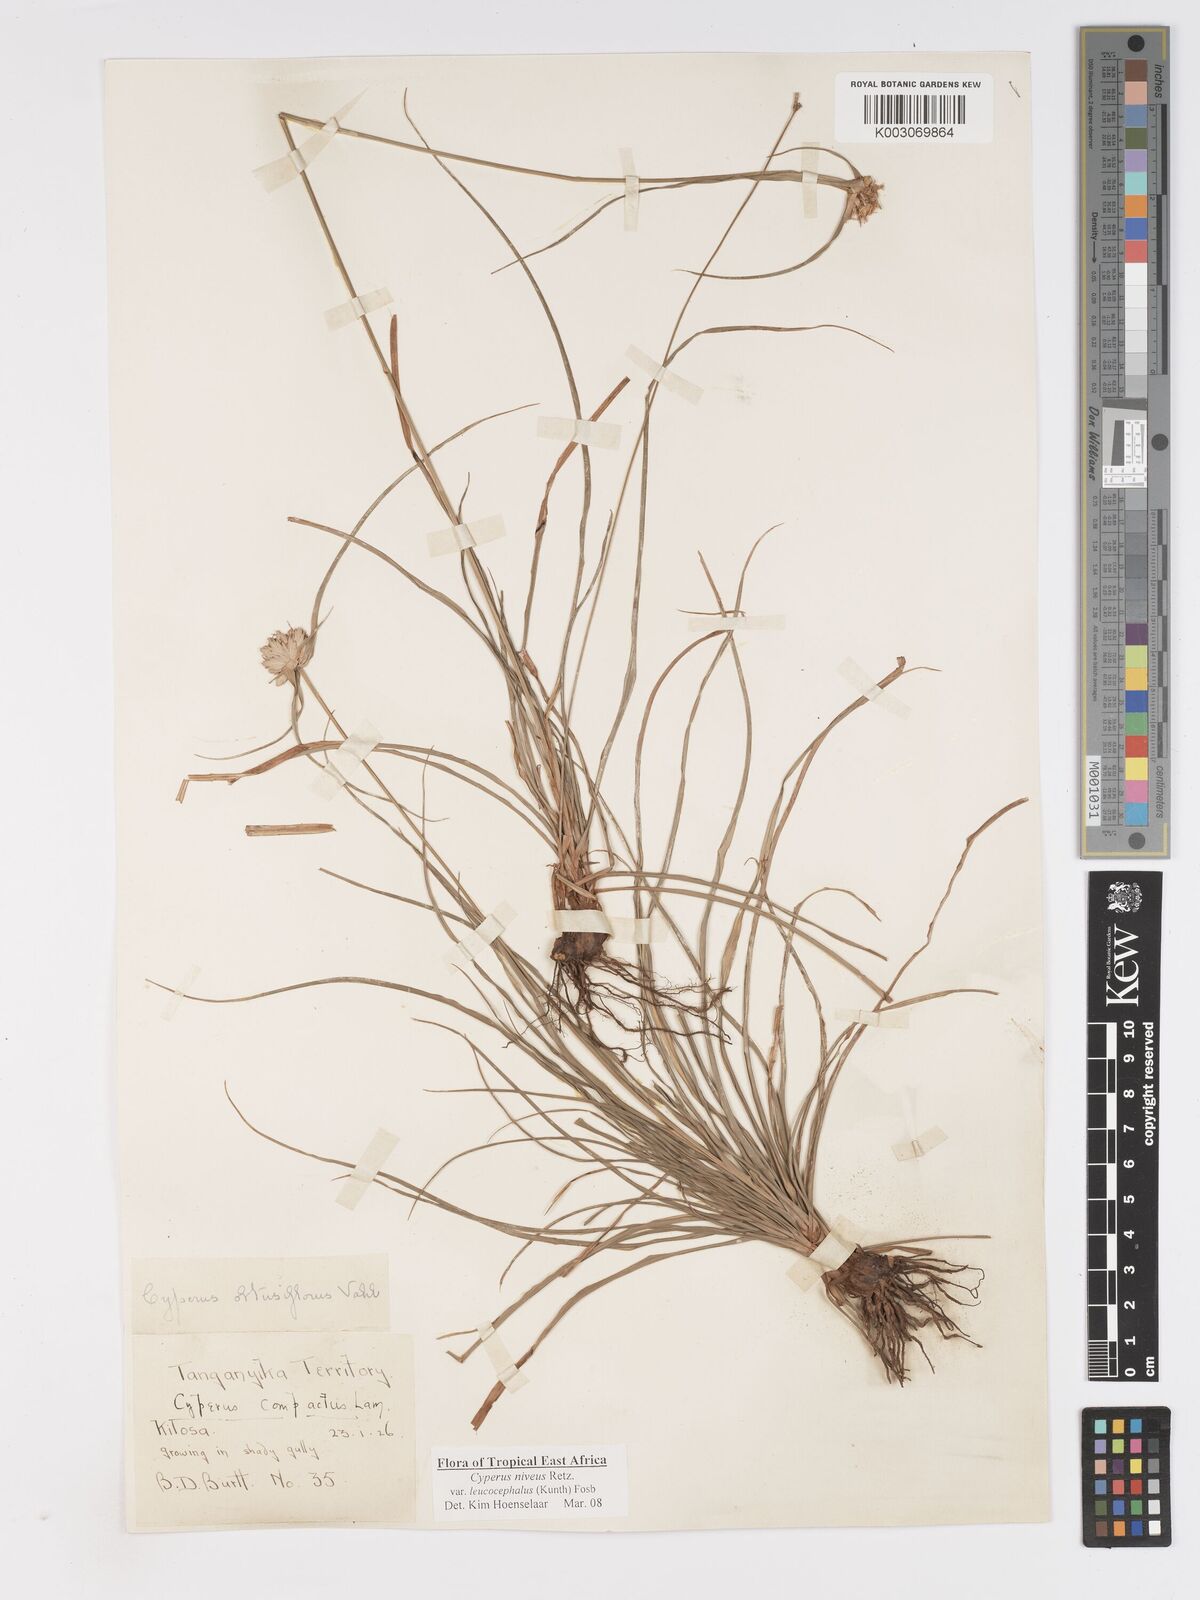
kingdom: Plantae
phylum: Tracheophyta
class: Liliopsida
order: Poales
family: Cyperaceae
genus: Cyperus
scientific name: Cyperus niveus
